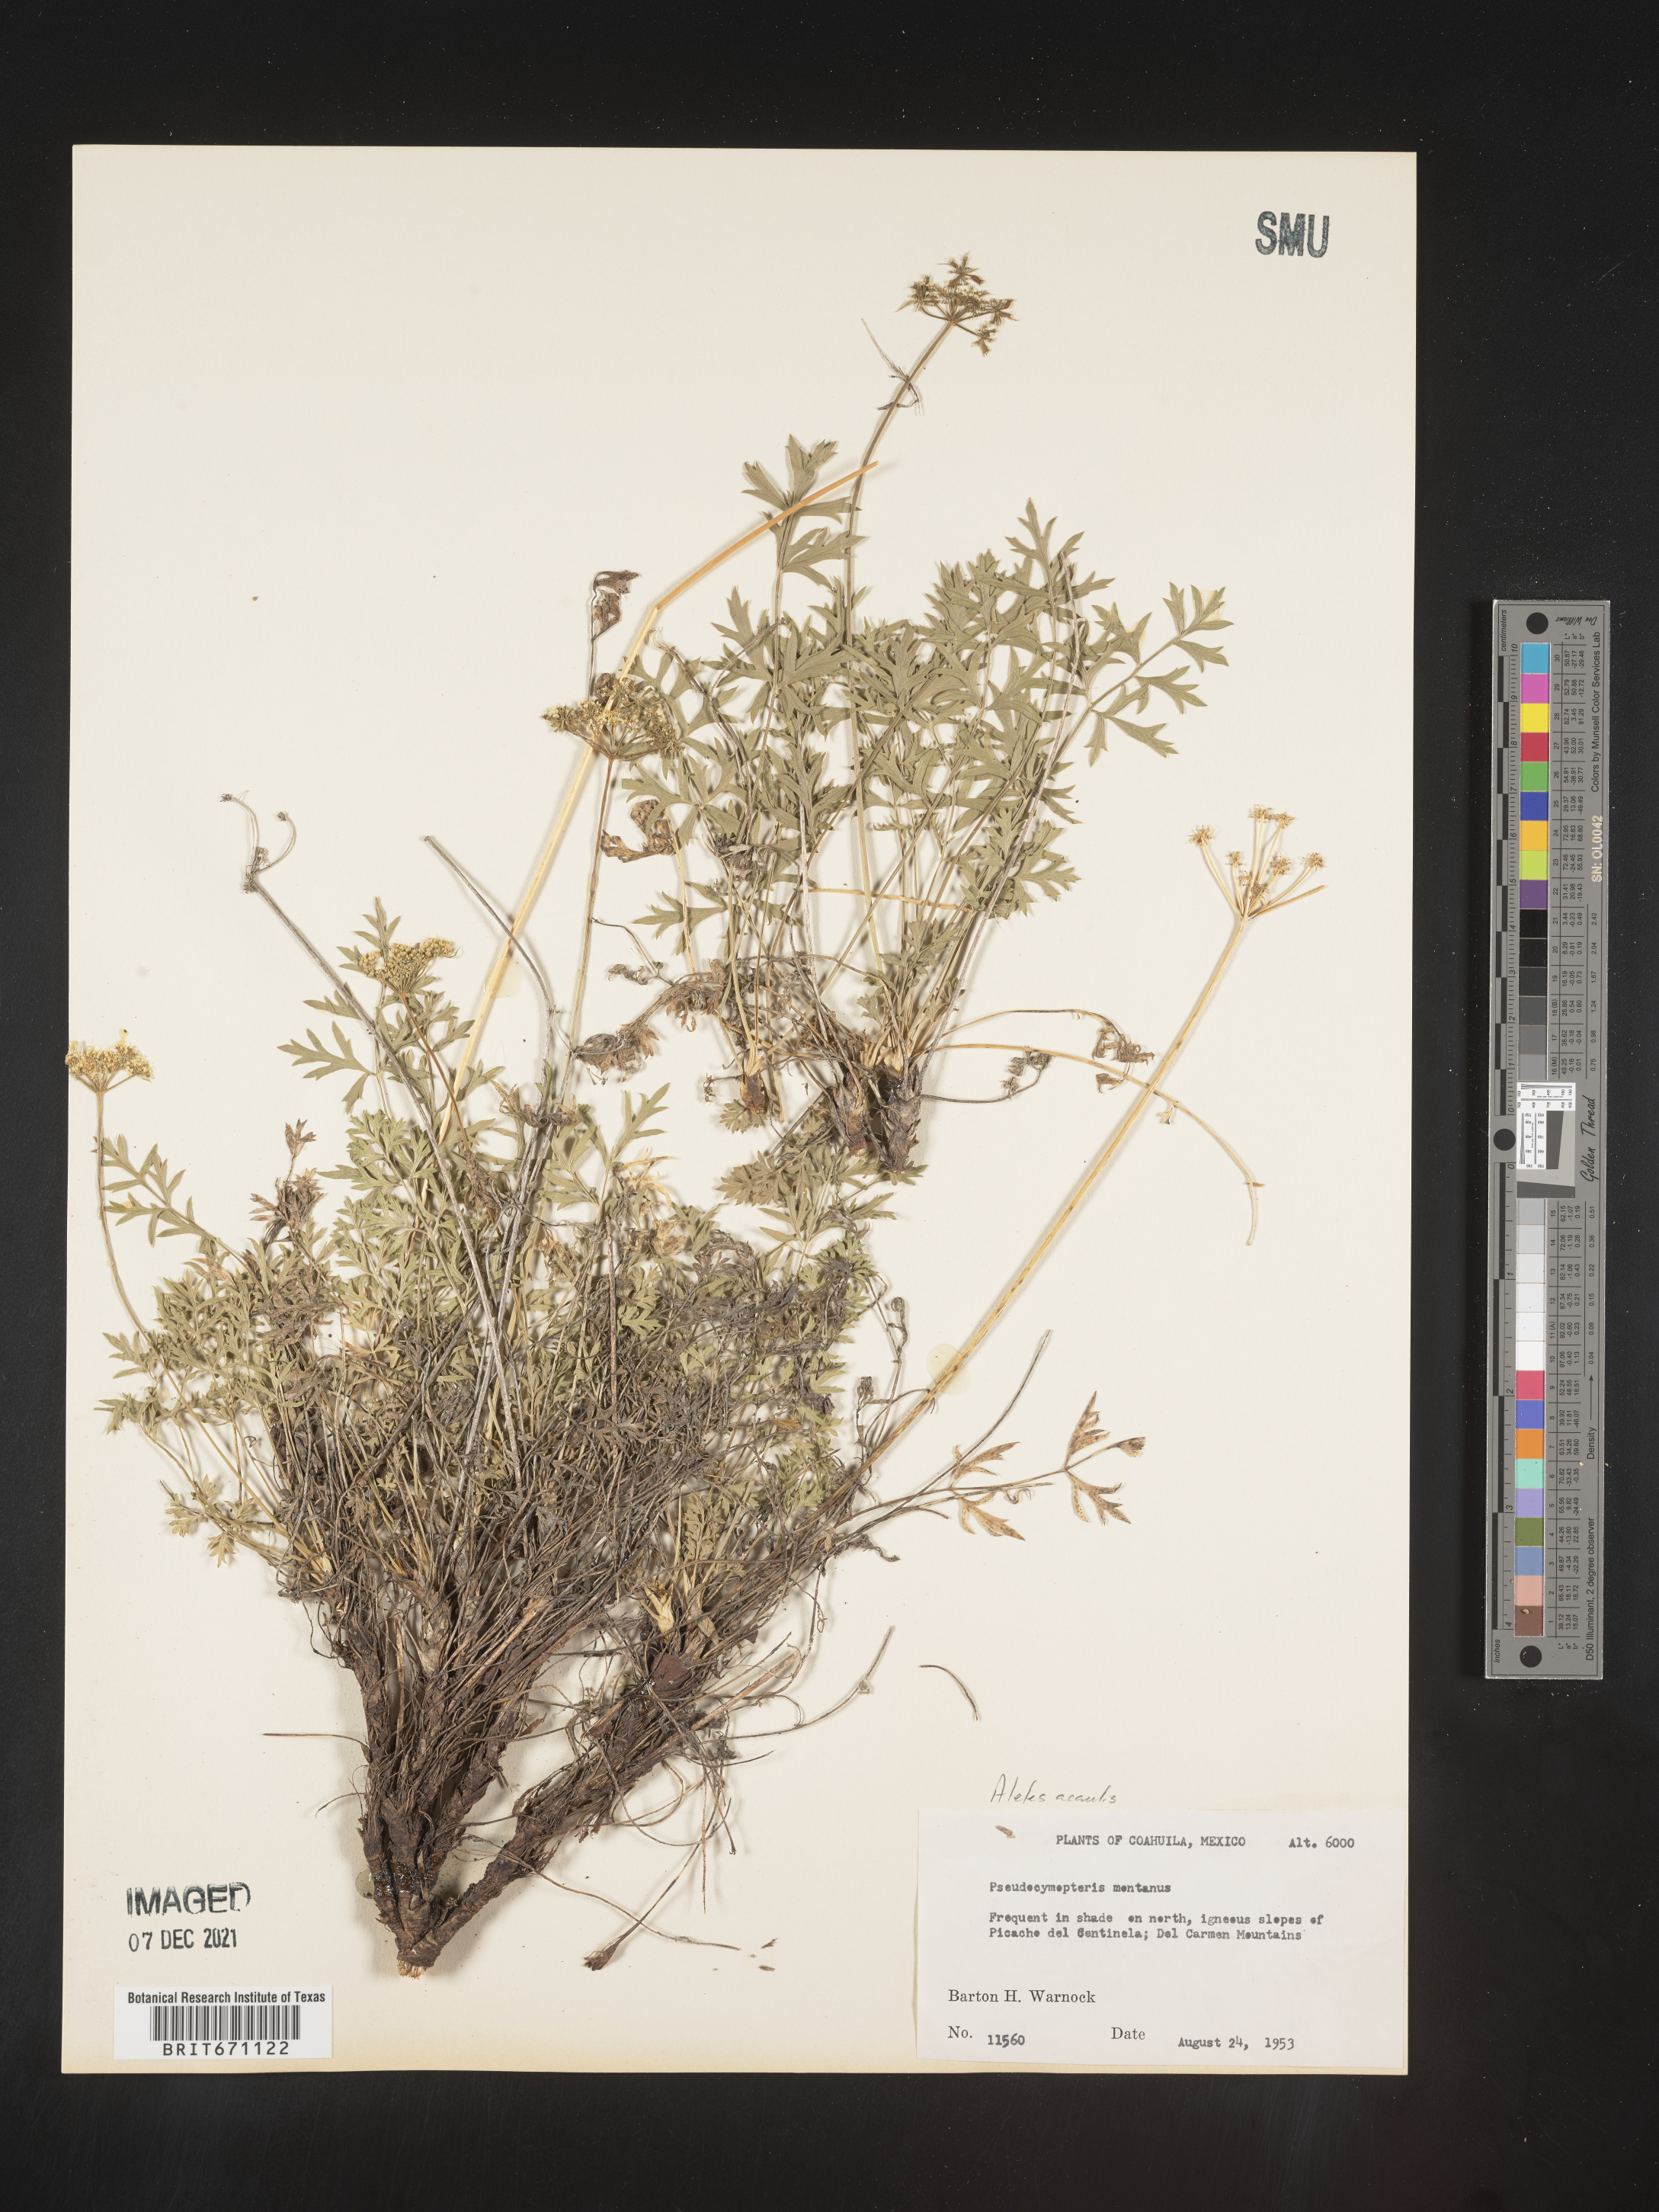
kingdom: Plantae
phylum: Tracheophyta
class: Magnoliopsida
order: Apiales
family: Apiaceae
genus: Cymopterus
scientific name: Cymopterus hallii
